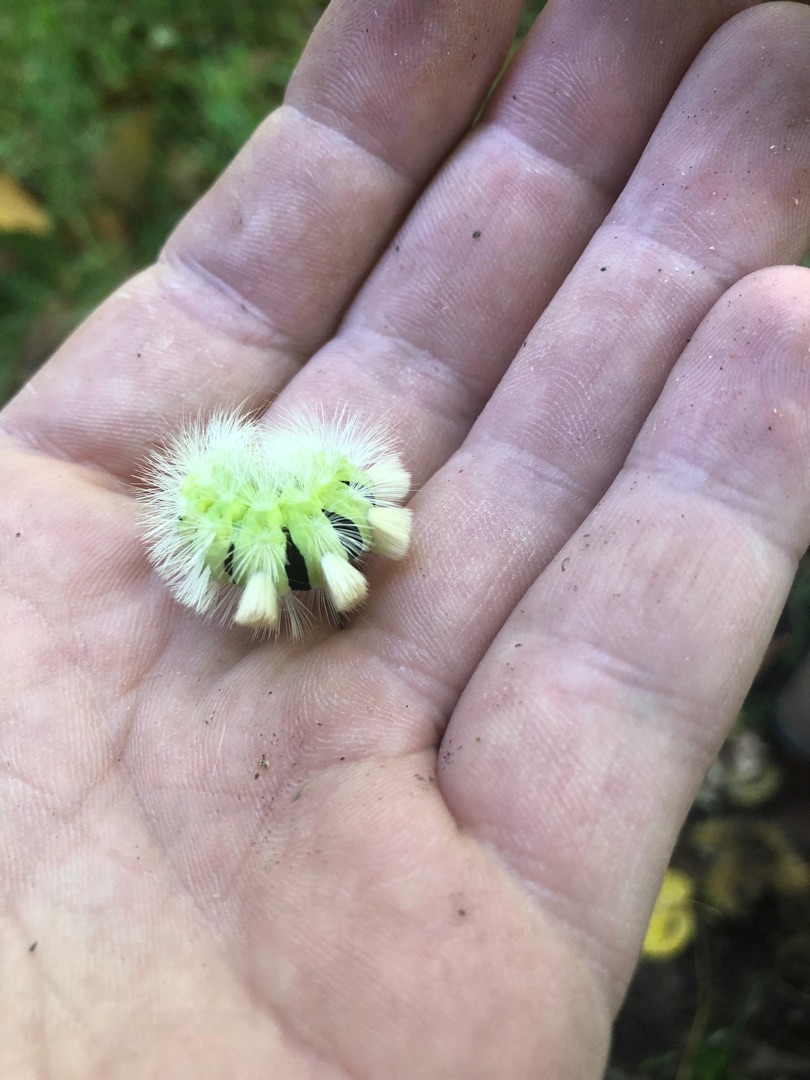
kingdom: Animalia
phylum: Arthropoda
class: Insecta
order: Lepidoptera
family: Erebidae
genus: Calliteara
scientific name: Calliteara pudibunda
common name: Bøgenonne
